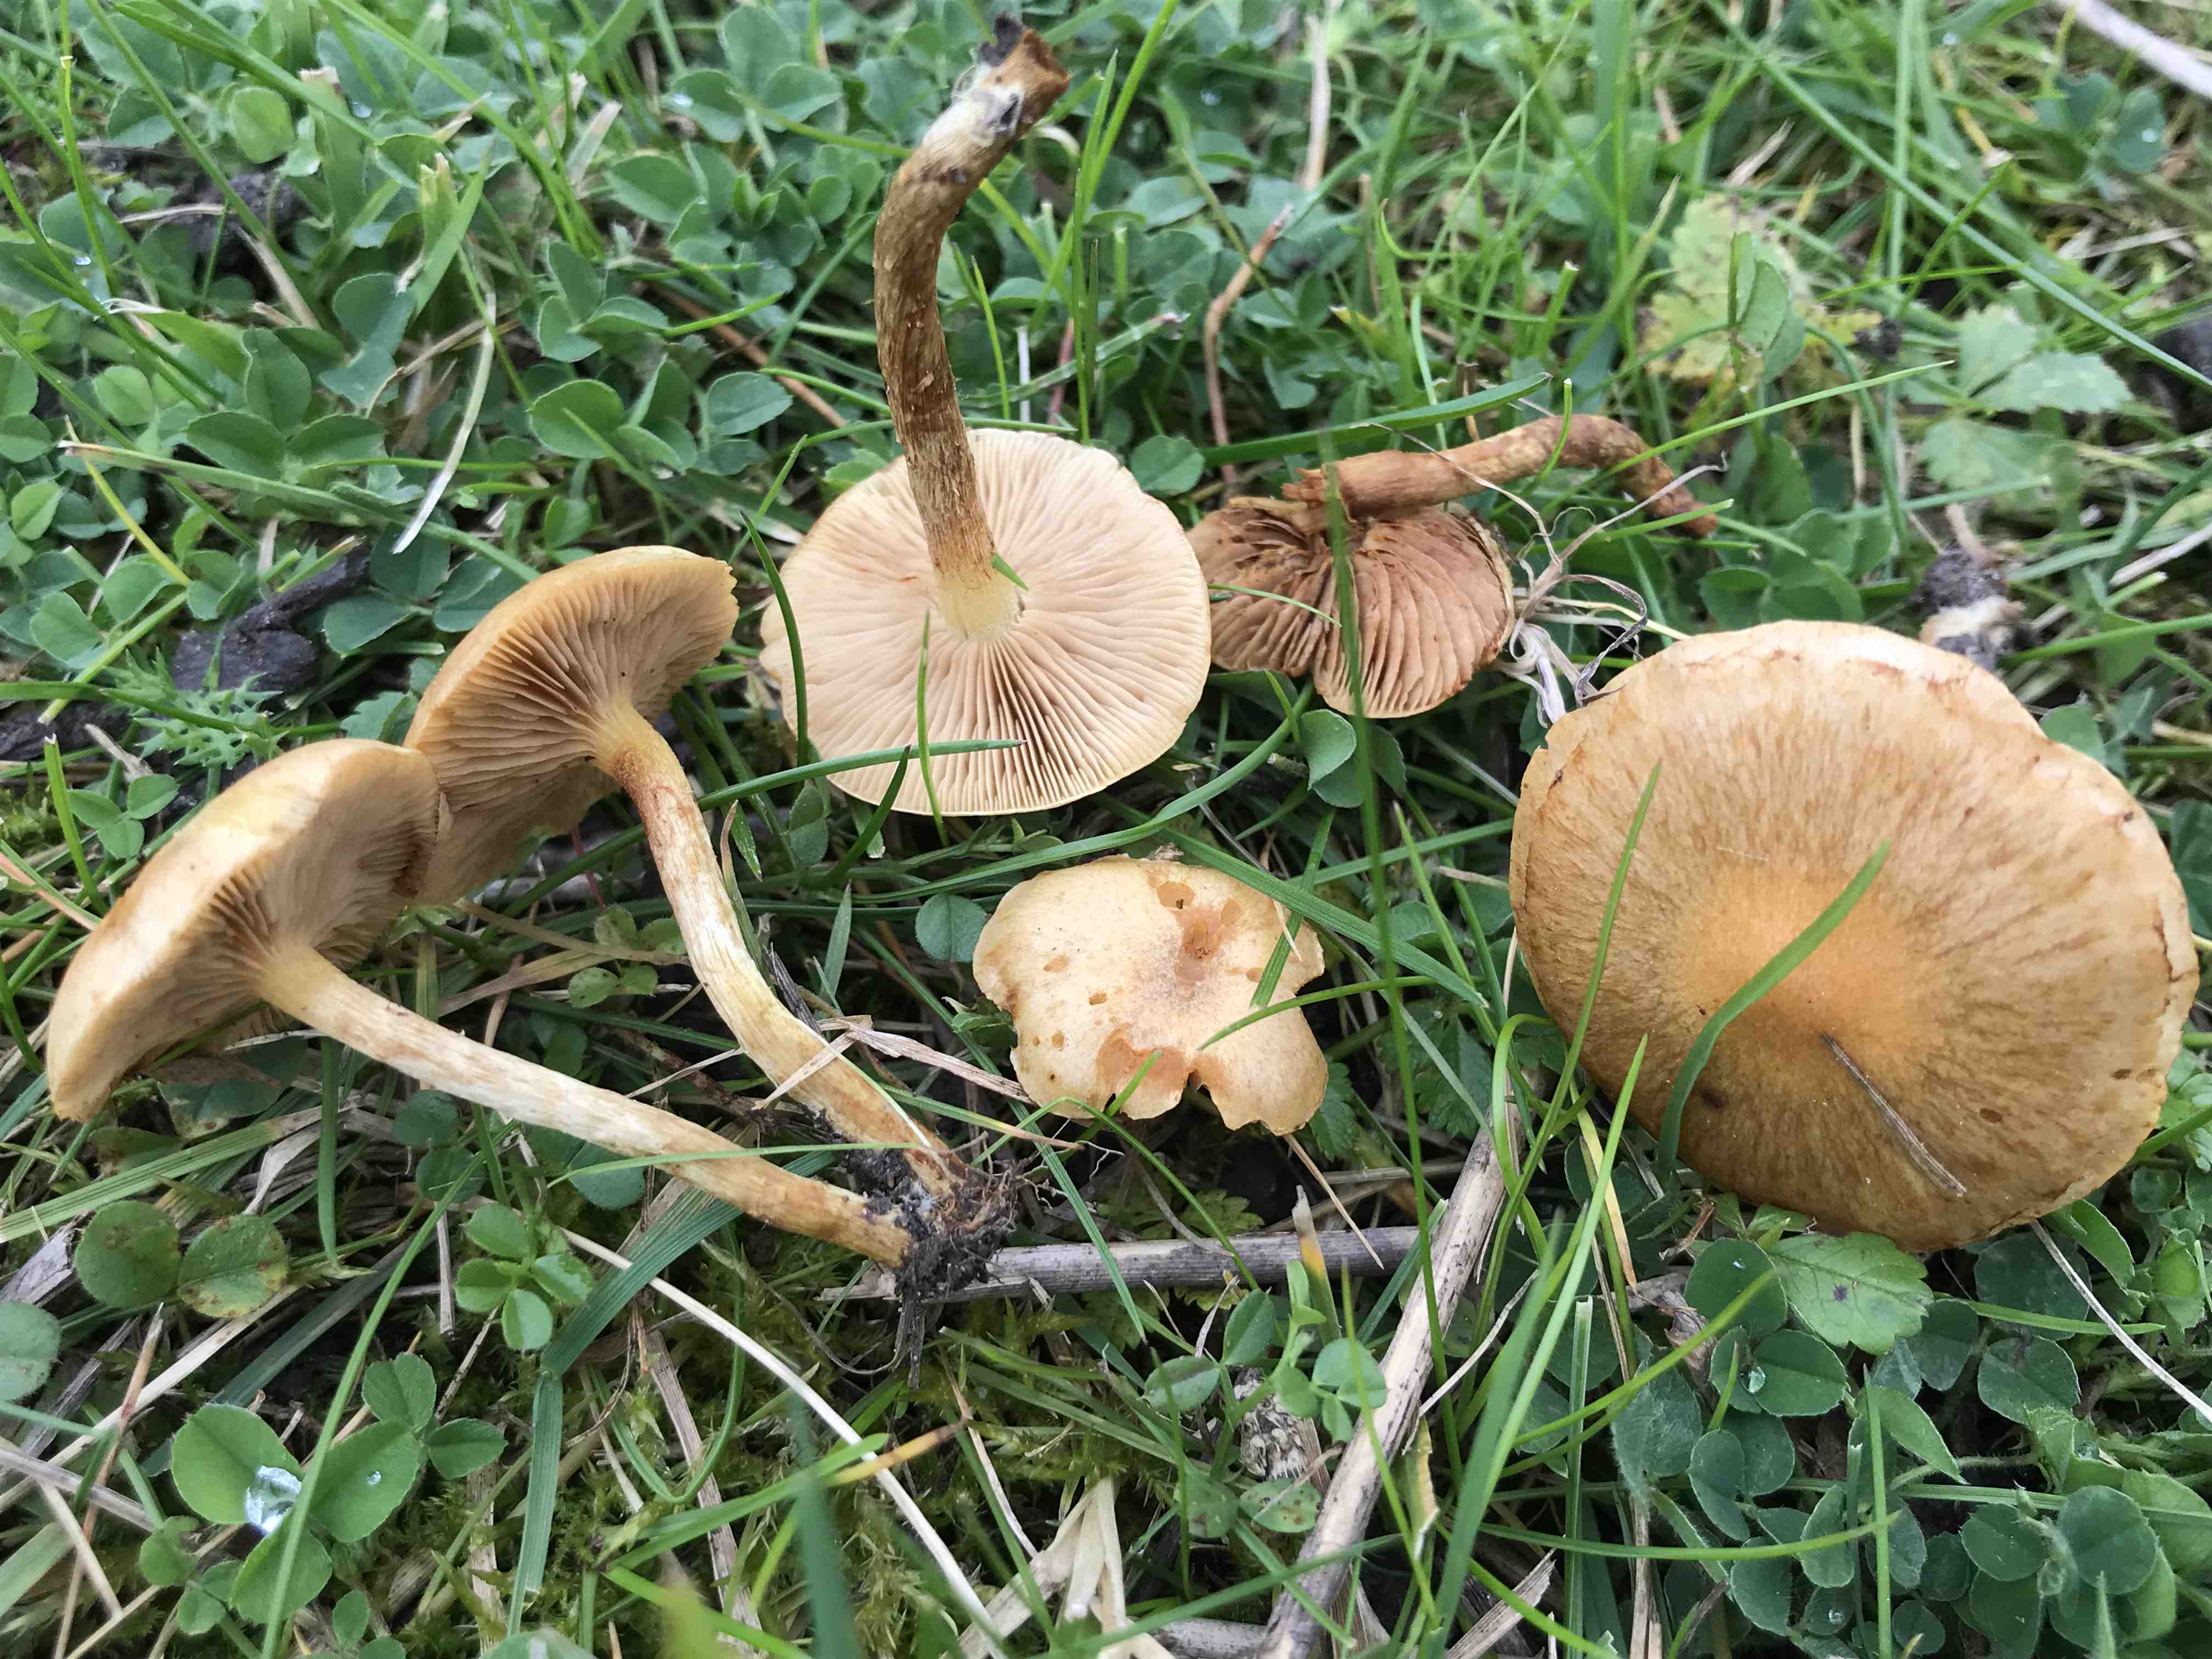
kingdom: Fungi
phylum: Basidiomycota
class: Agaricomycetes
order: Agaricales
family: Strophariaceae
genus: Pholiota
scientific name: Pholiota conissans
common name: pile-skælhat
